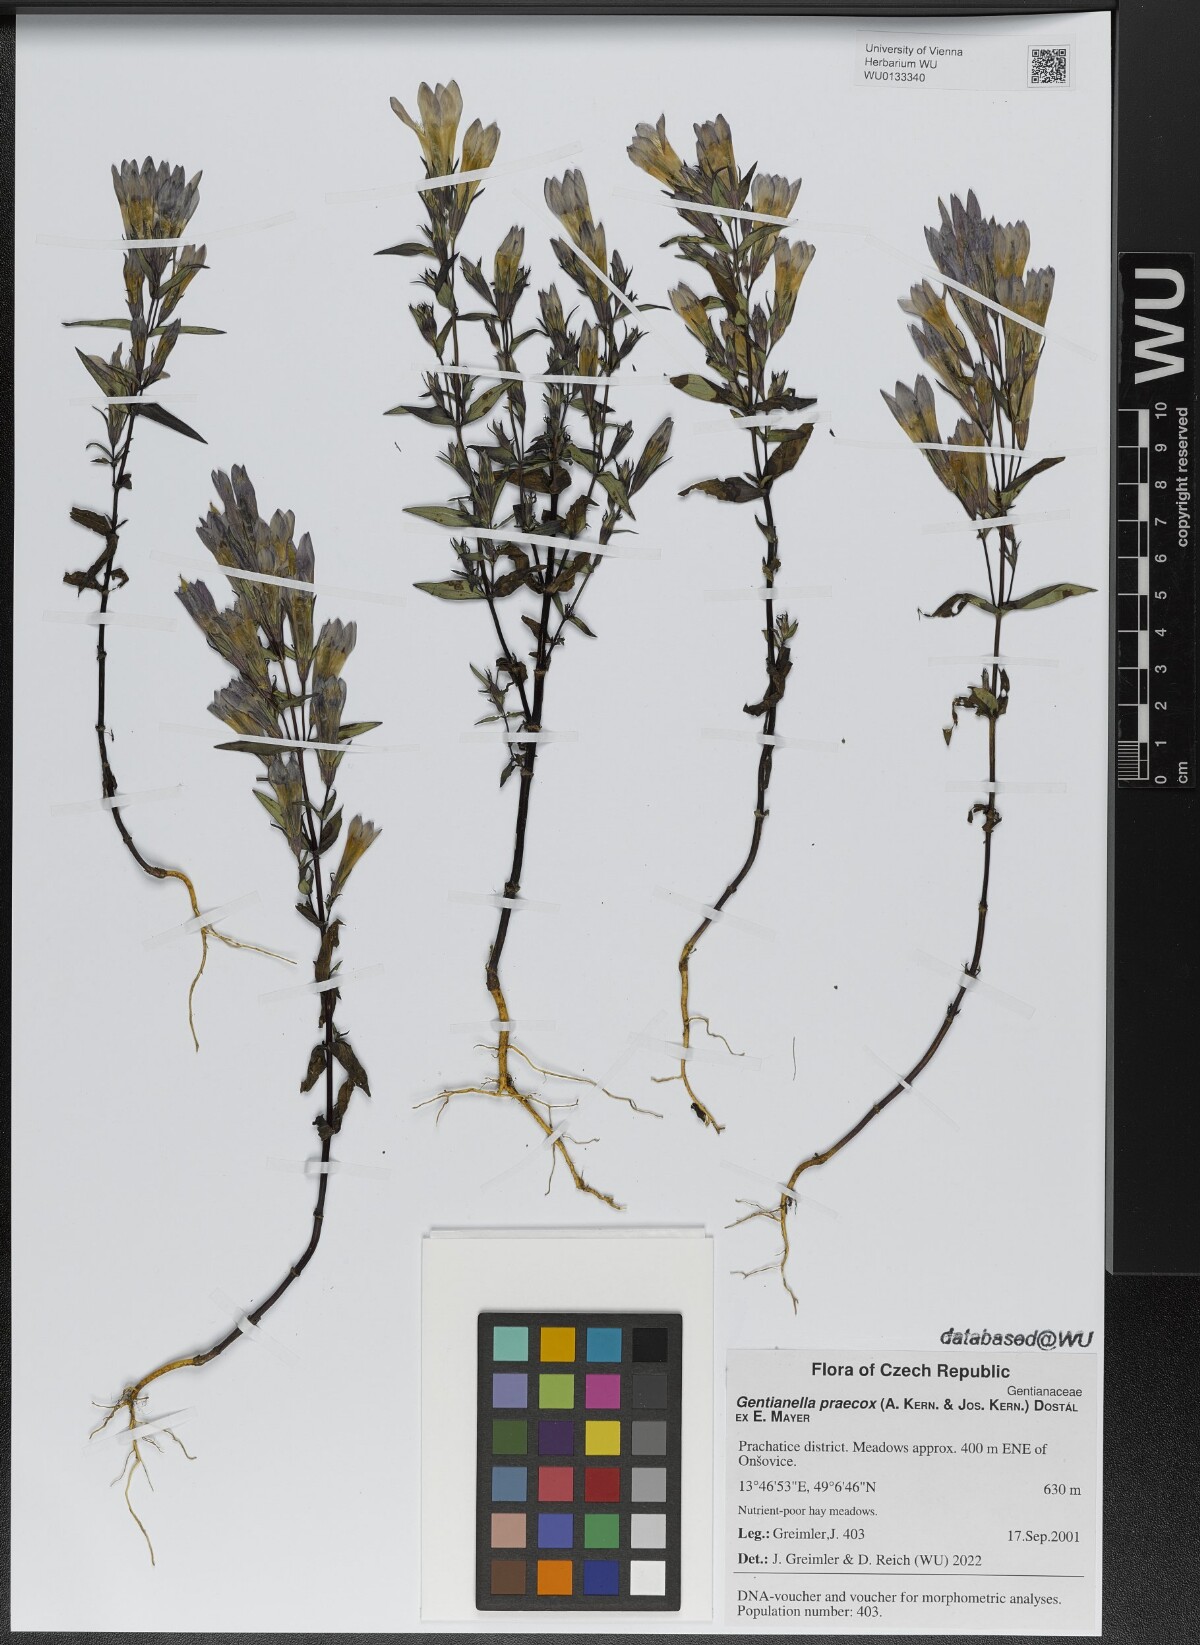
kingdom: Plantae
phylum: Tracheophyta
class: Magnoliopsida
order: Gentianales
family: Gentianaceae
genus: Gentianella
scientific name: Gentianella praecox
